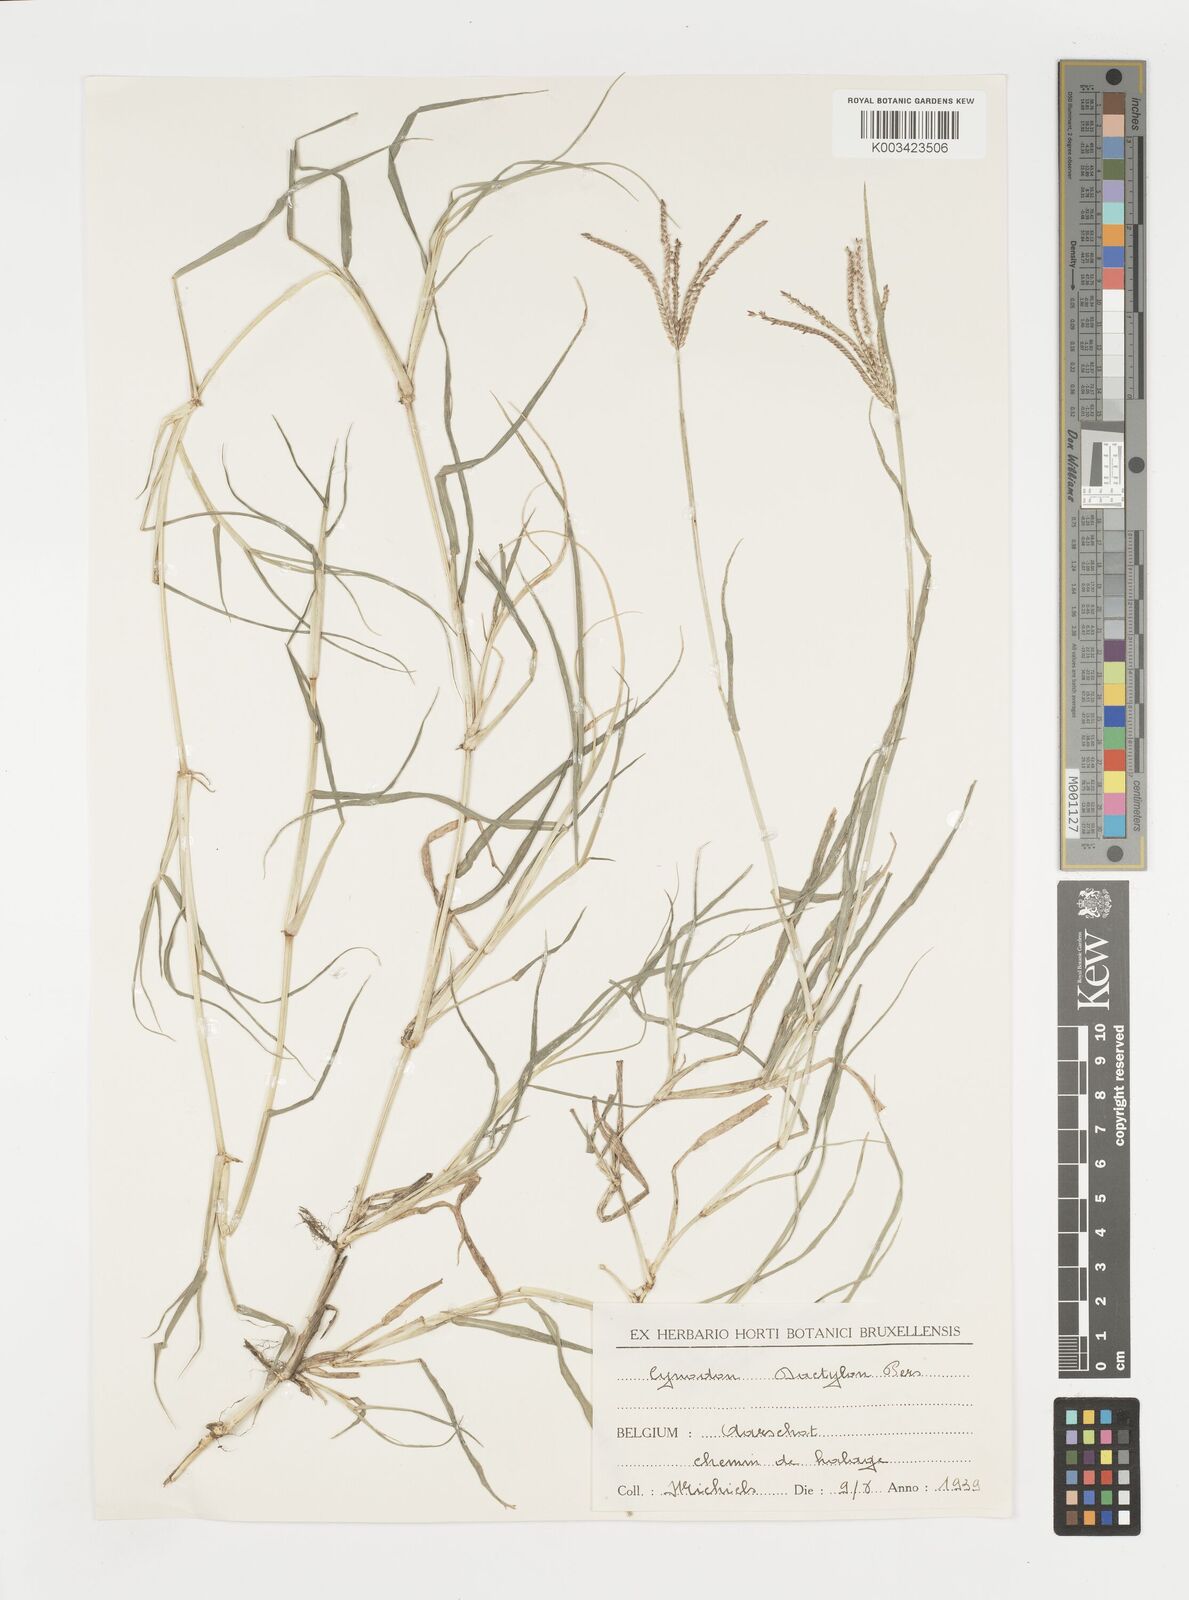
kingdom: Plantae
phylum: Tracheophyta
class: Liliopsida
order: Poales
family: Poaceae
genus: Cynodon
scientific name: Cynodon dactylon
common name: Bermuda grass
